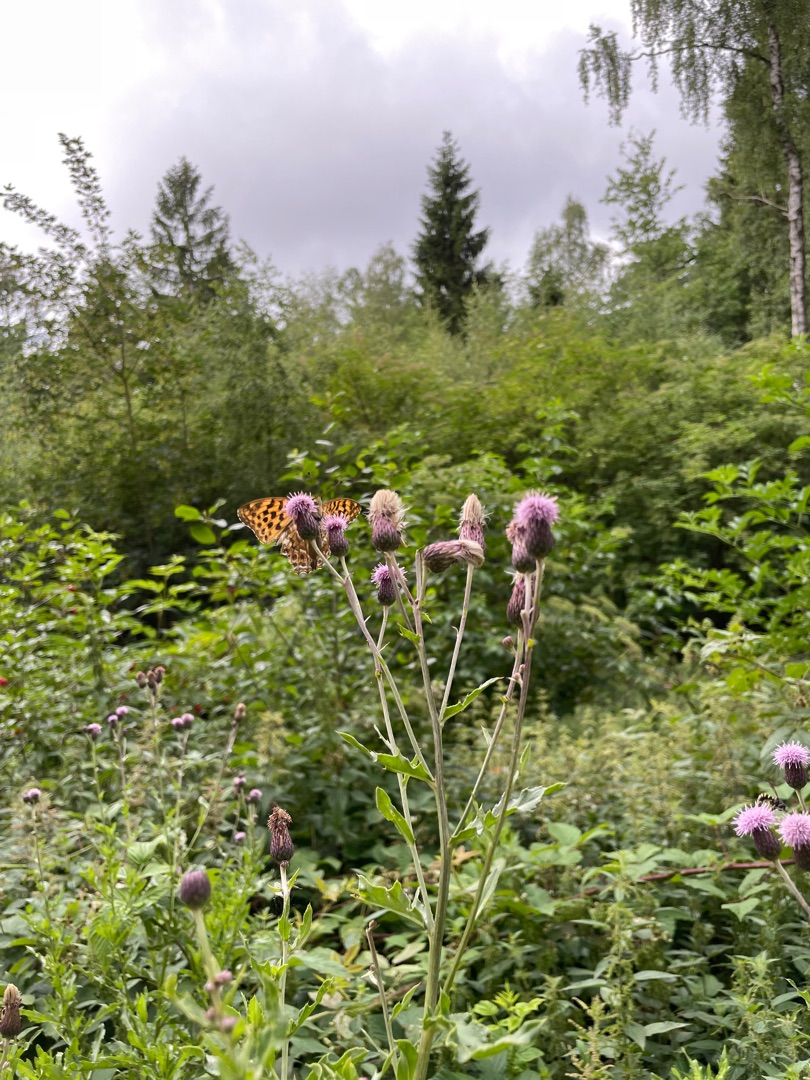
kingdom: Animalia
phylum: Arthropoda
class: Insecta
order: Lepidoptera
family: Nymphalidae
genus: Argynnis
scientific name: Argynnis paphia
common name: Kejserkåbe
